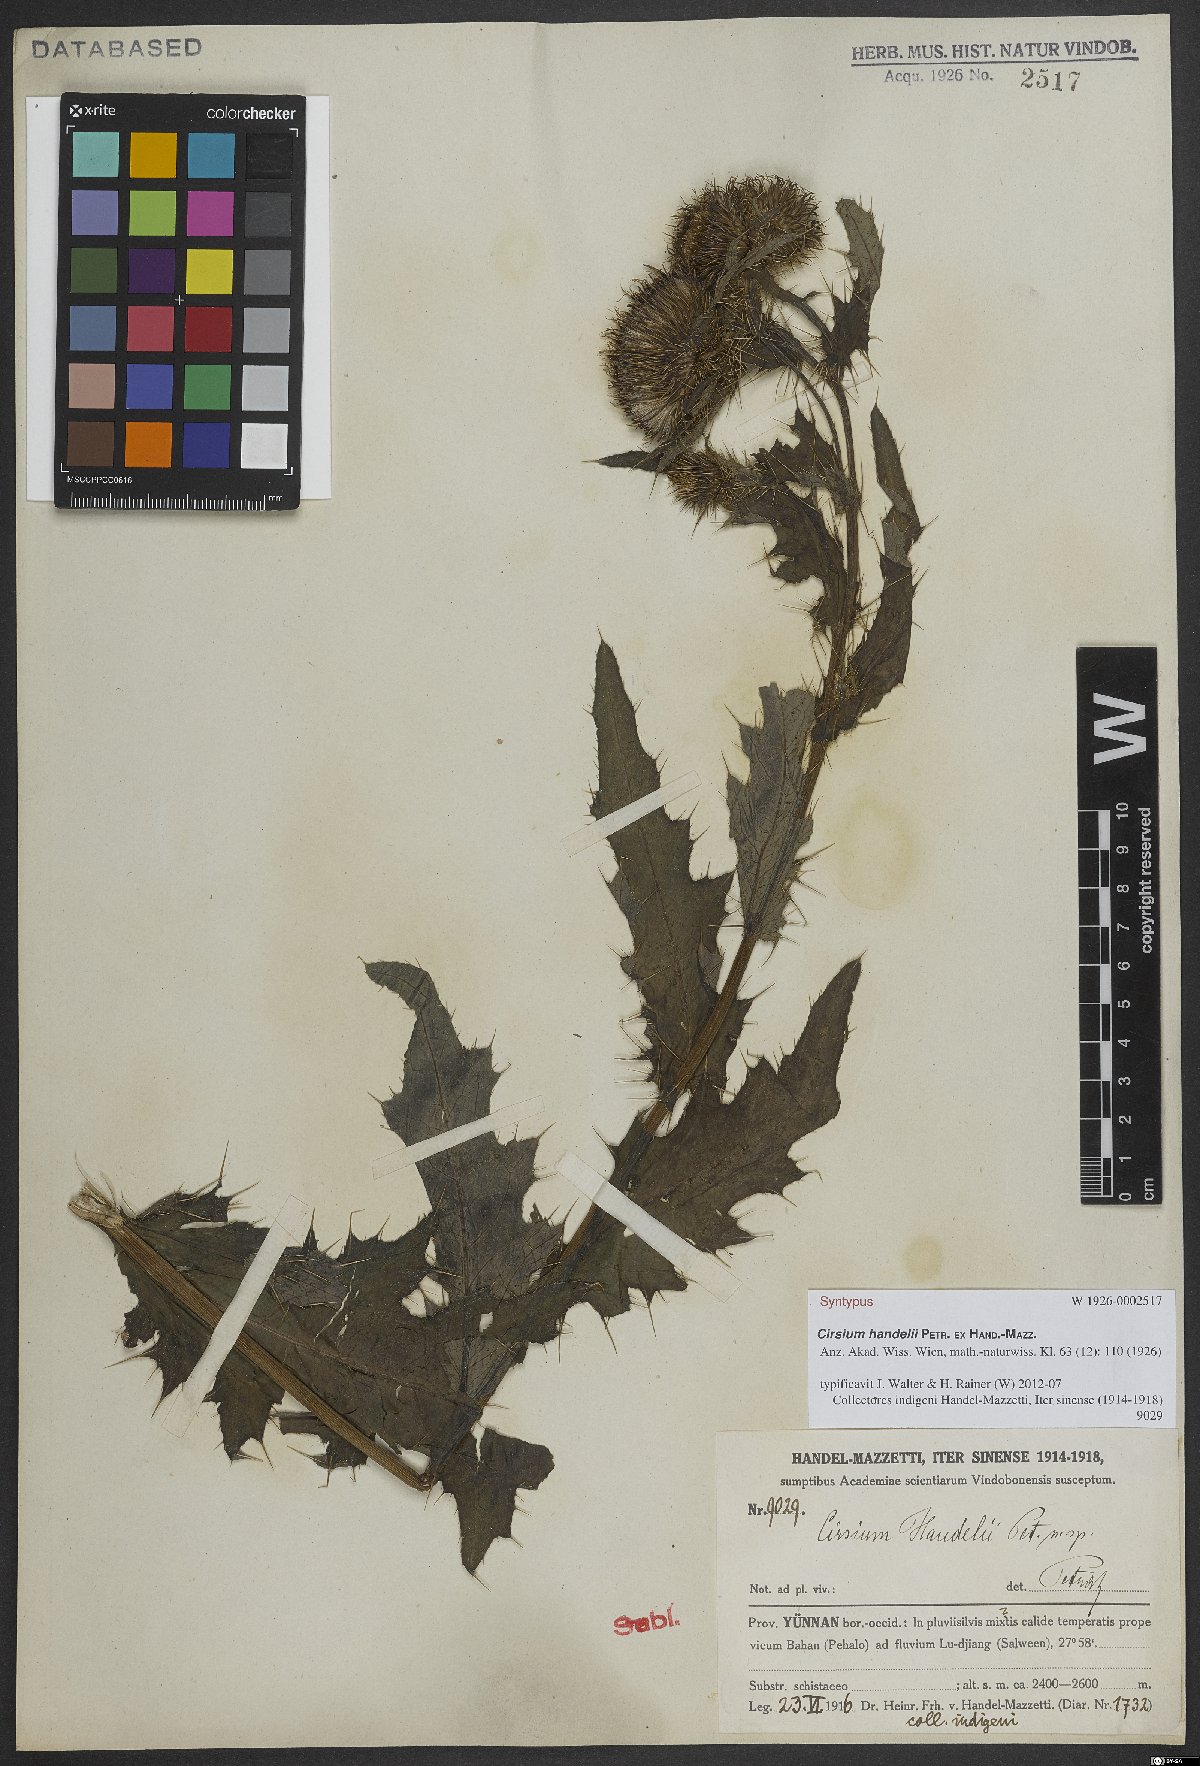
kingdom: Plantae
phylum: Tracheophyta
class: Magnoliopsida
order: Asterales
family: Asteraceae
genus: Cirsium
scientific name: Cirsium handelii
